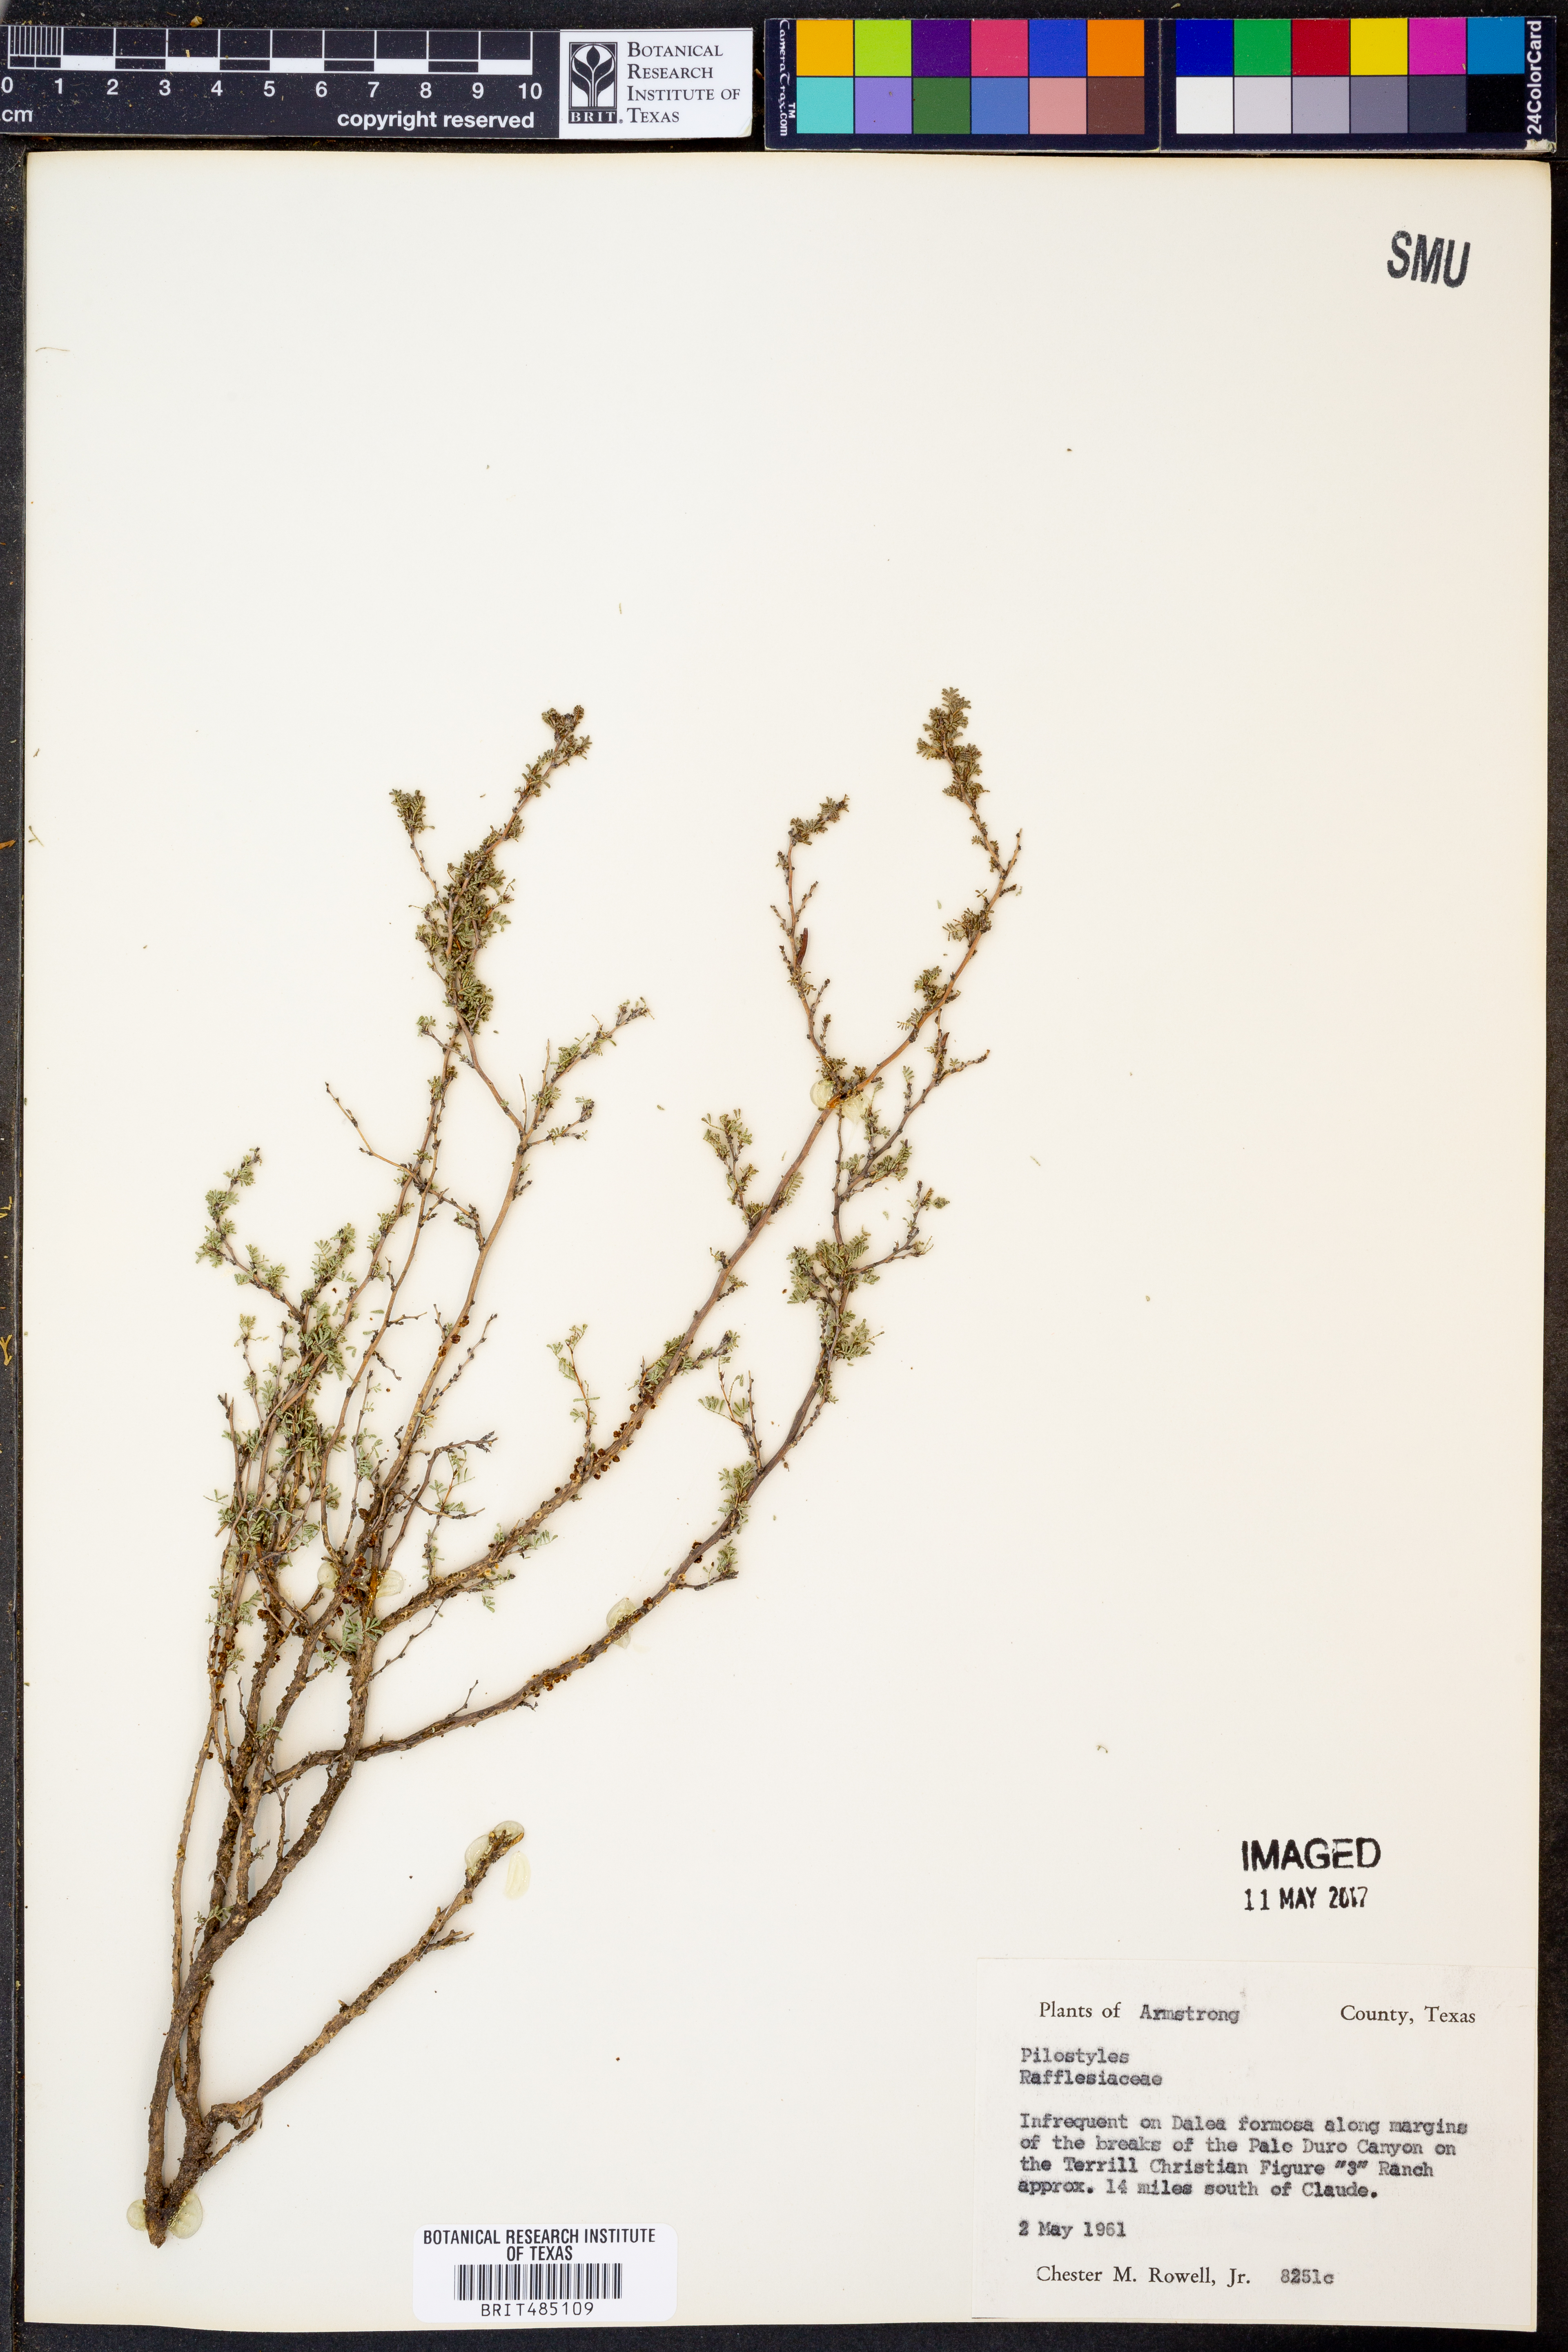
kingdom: Plantae
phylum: Tracheophyta
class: Magnoliopsida
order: Cucurbitales
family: Apodanthaceae
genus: Pilostyles
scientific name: Pilostyles
